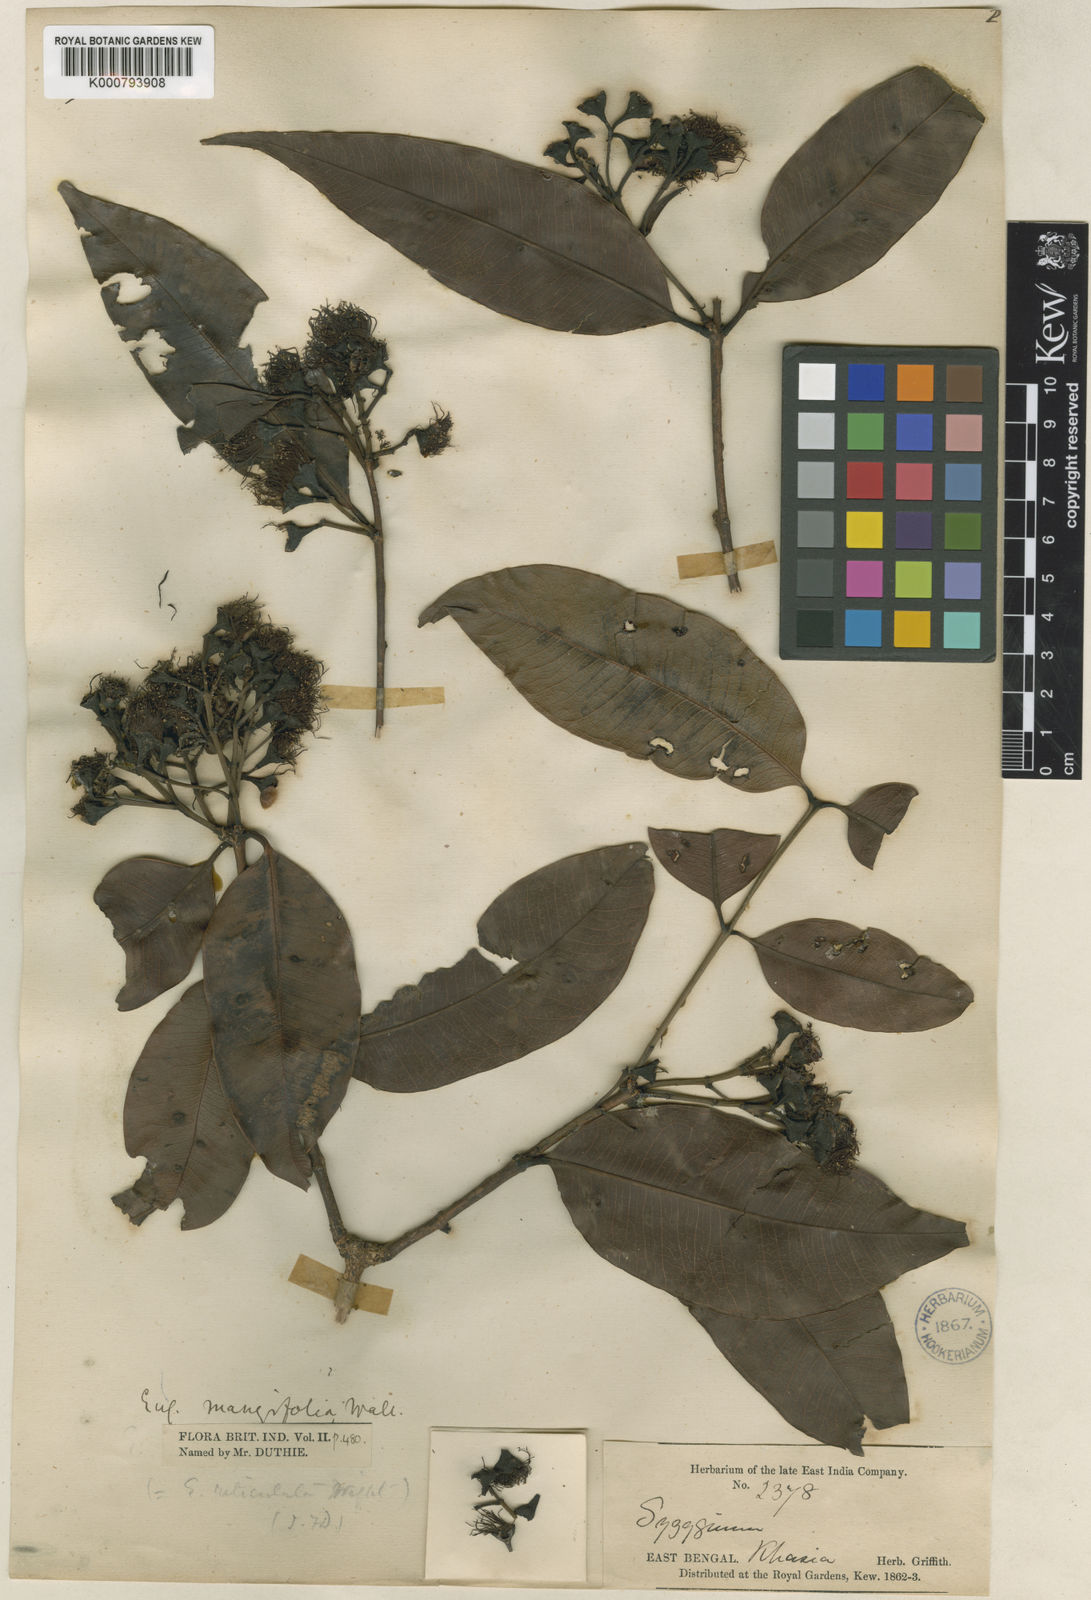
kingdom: Plantae
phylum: Tracheophyta
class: Magnoliopsida
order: Myrtales
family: Myrtaceae
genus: Syzygium
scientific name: Syzygium
